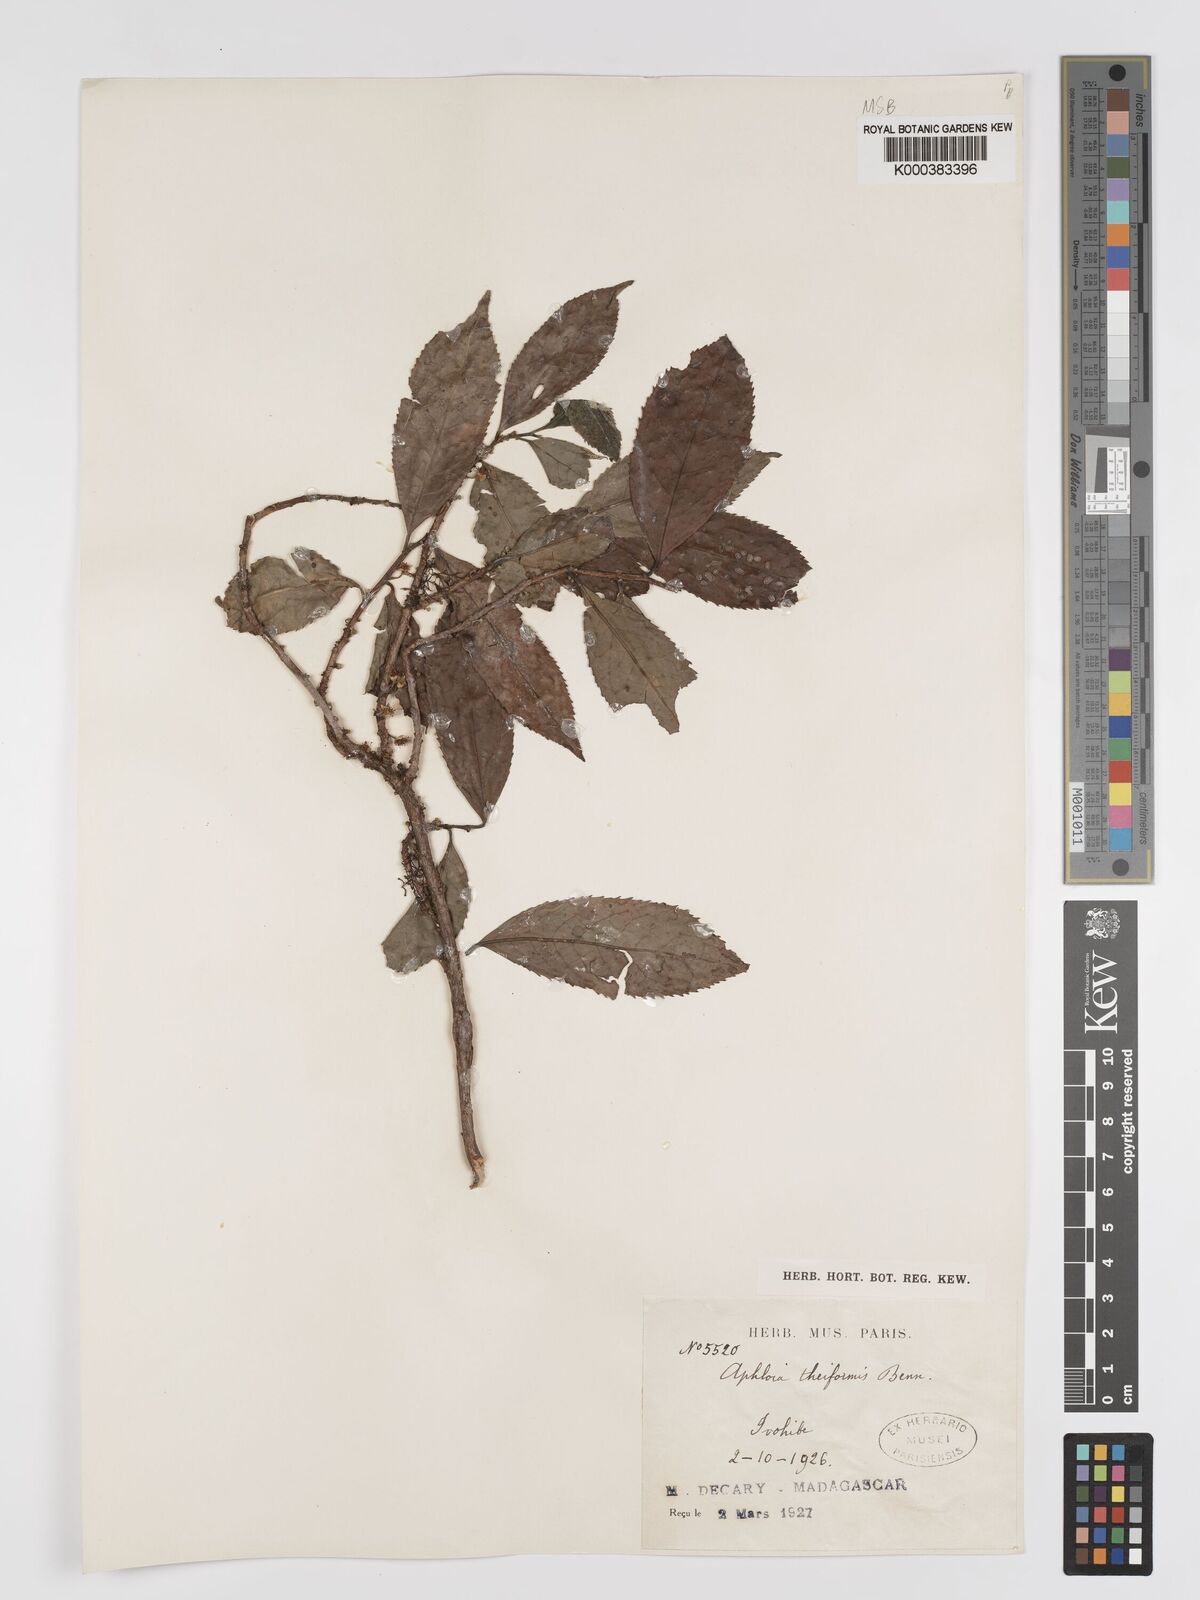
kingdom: Plantae
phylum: Tracheophyta
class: Magnoliopsida
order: Crossosomatales
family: Aphloiaceae
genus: Aphloia
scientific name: Aphloia theiformis
